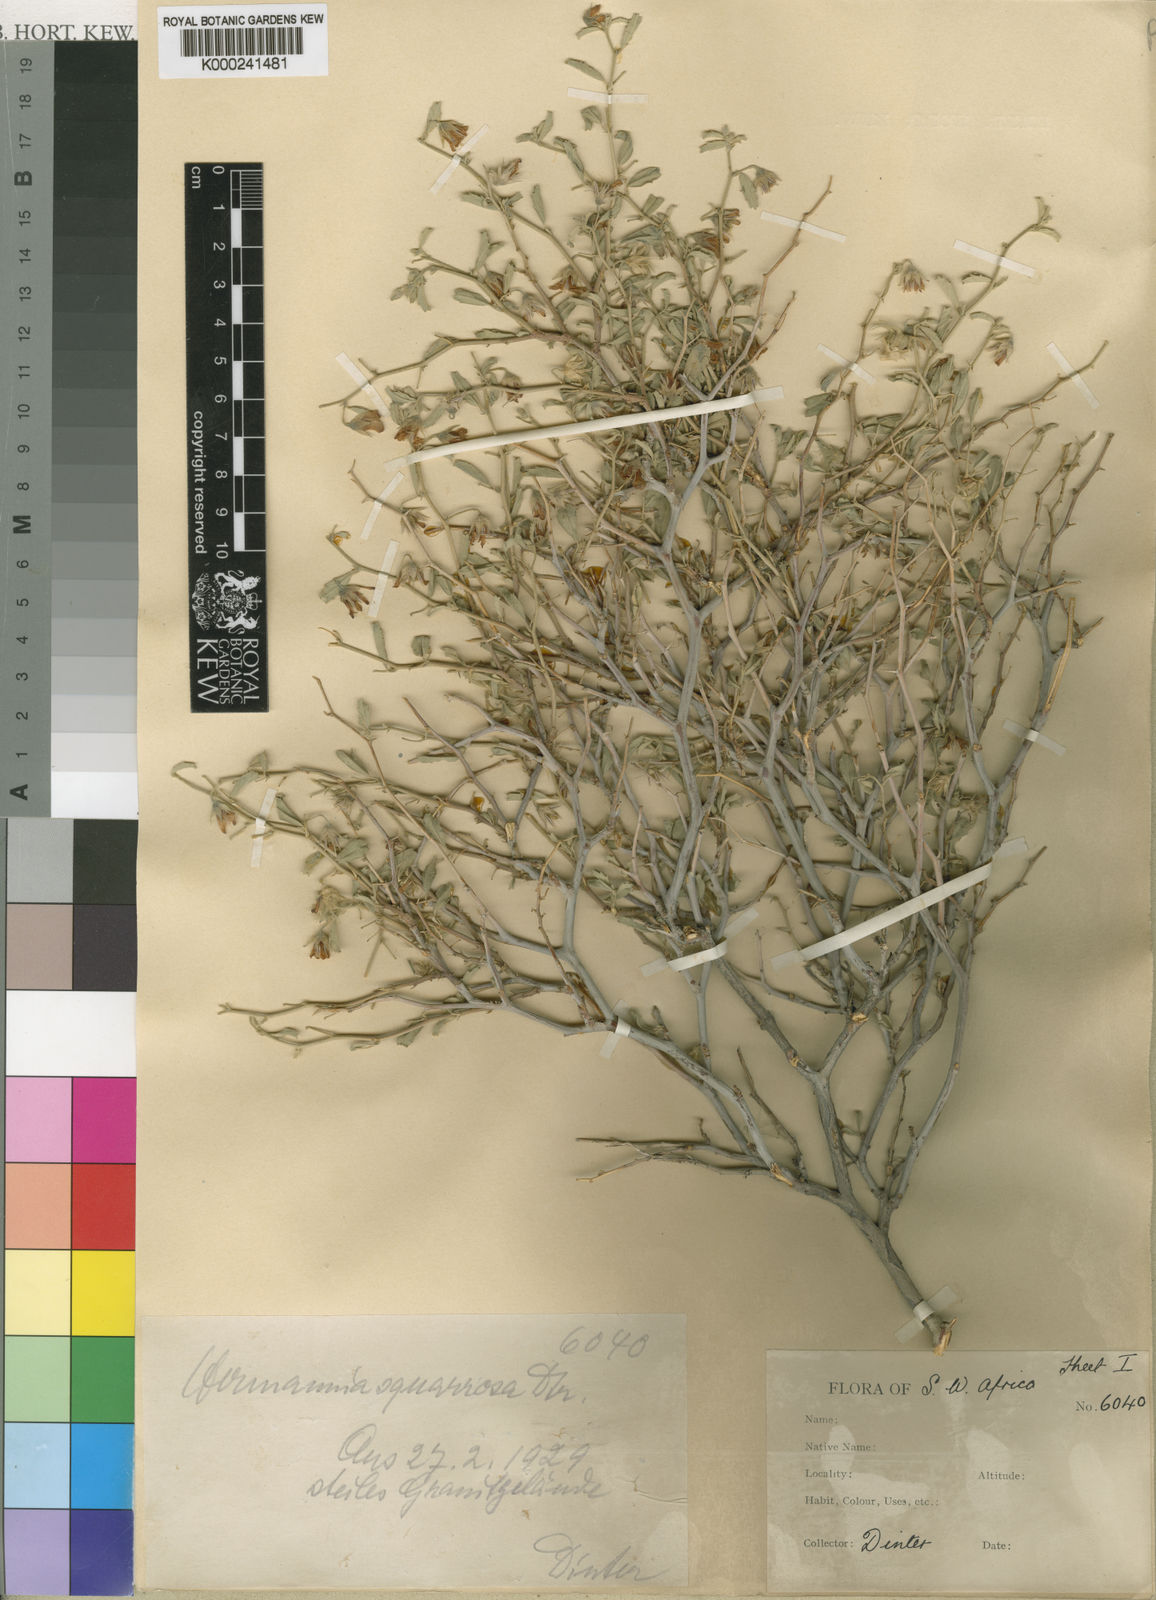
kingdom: Plantae
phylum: Tracheophyta
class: Magnoliopsida
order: Malvales
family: Malvaceae
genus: Hermannia
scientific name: Hermannia
